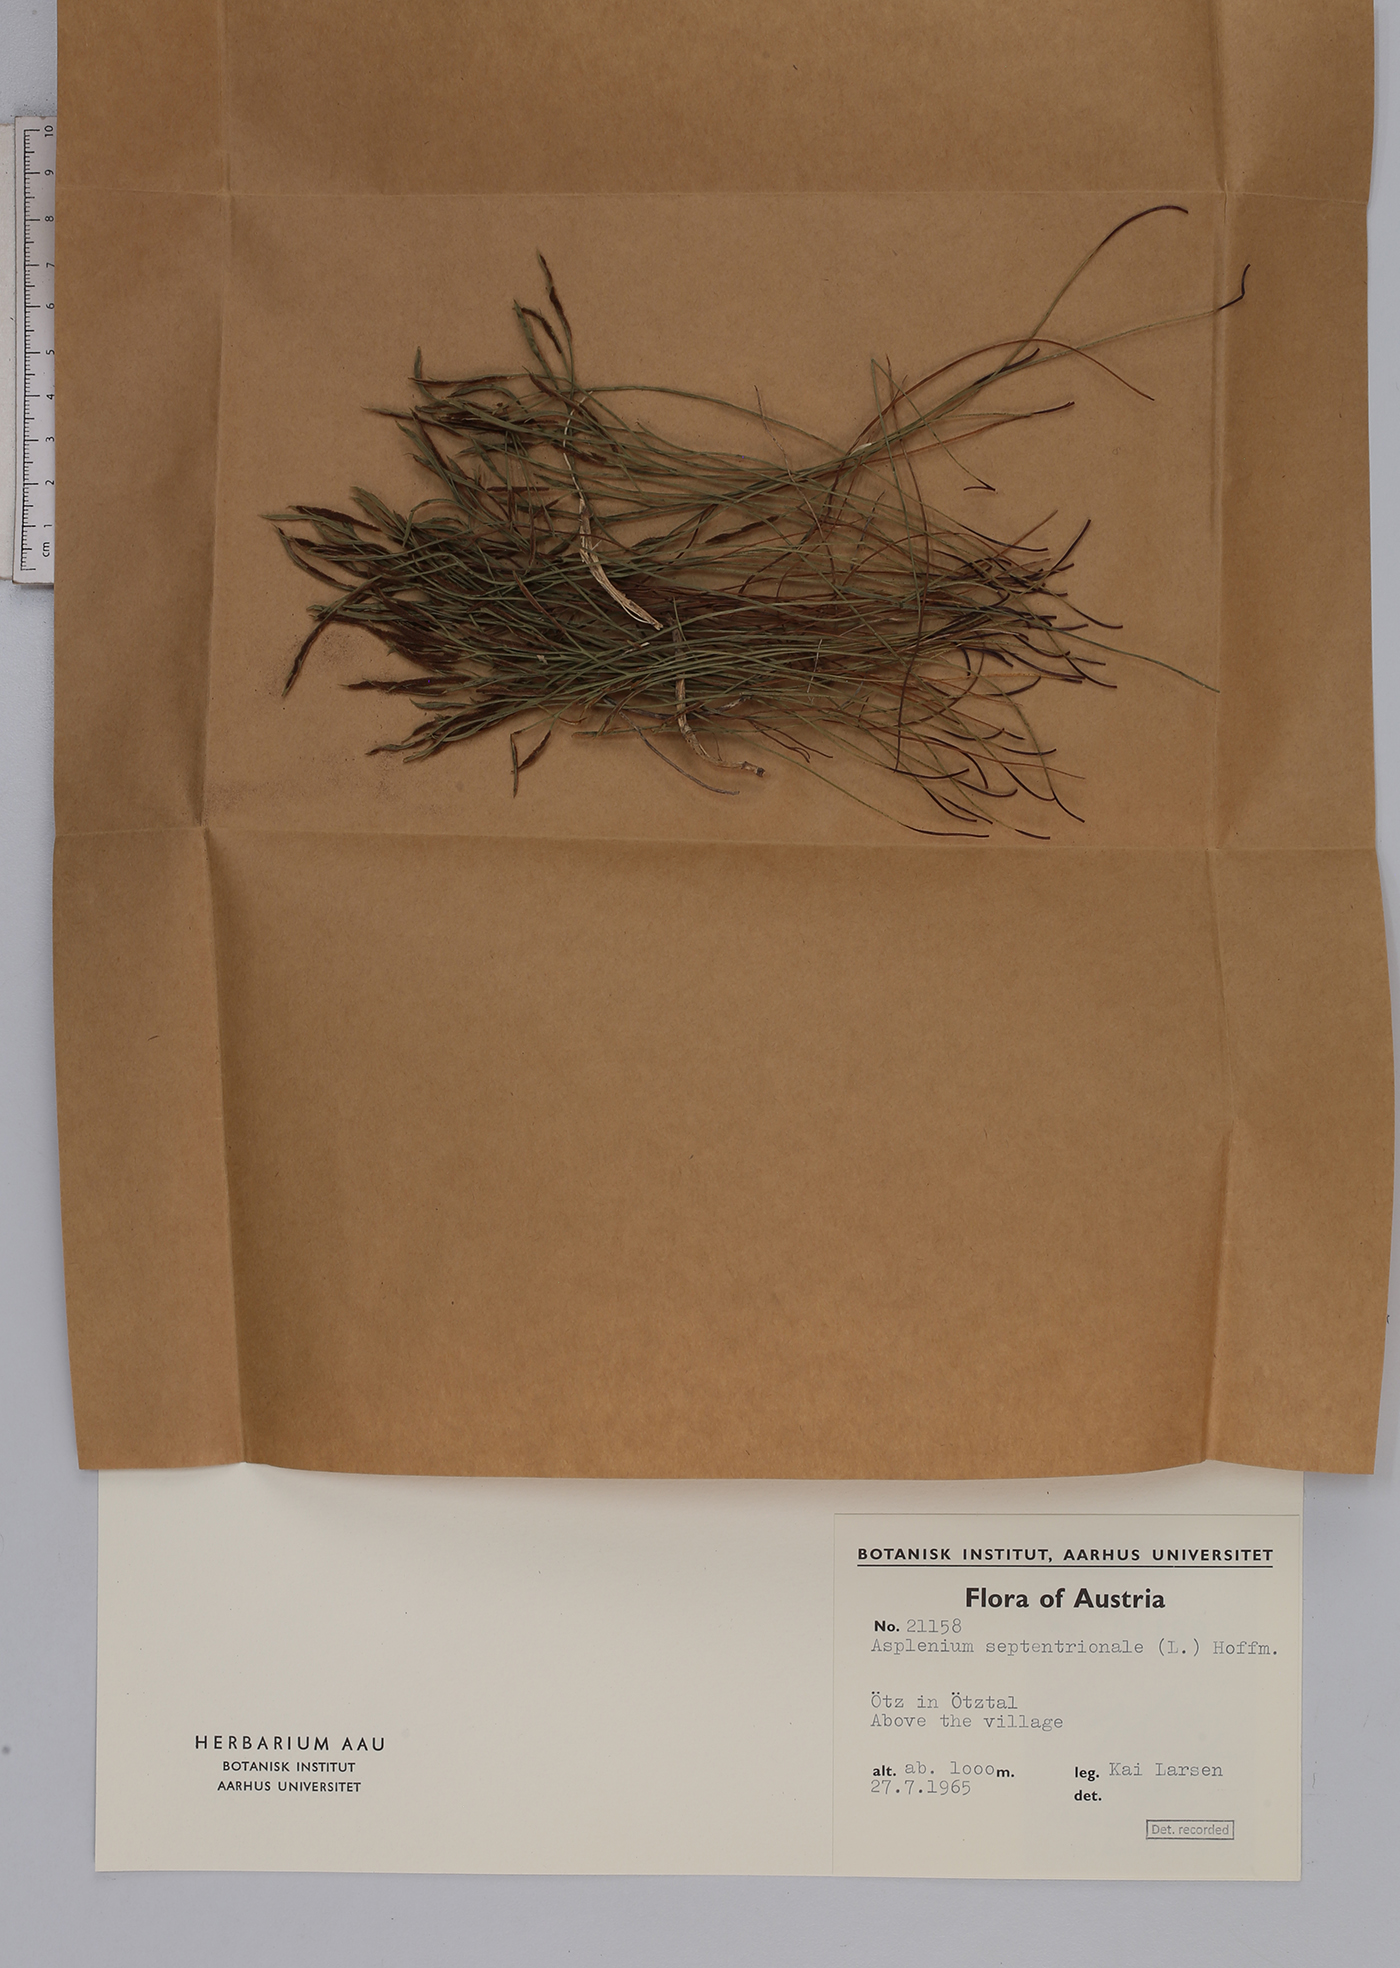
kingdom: Plantae
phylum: Tracheophyta
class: Polypodiopsida
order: Polypodiales
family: Aspleniaceae
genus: Asplenium
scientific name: Asplenium septentrionale
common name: Forked spleenwort
